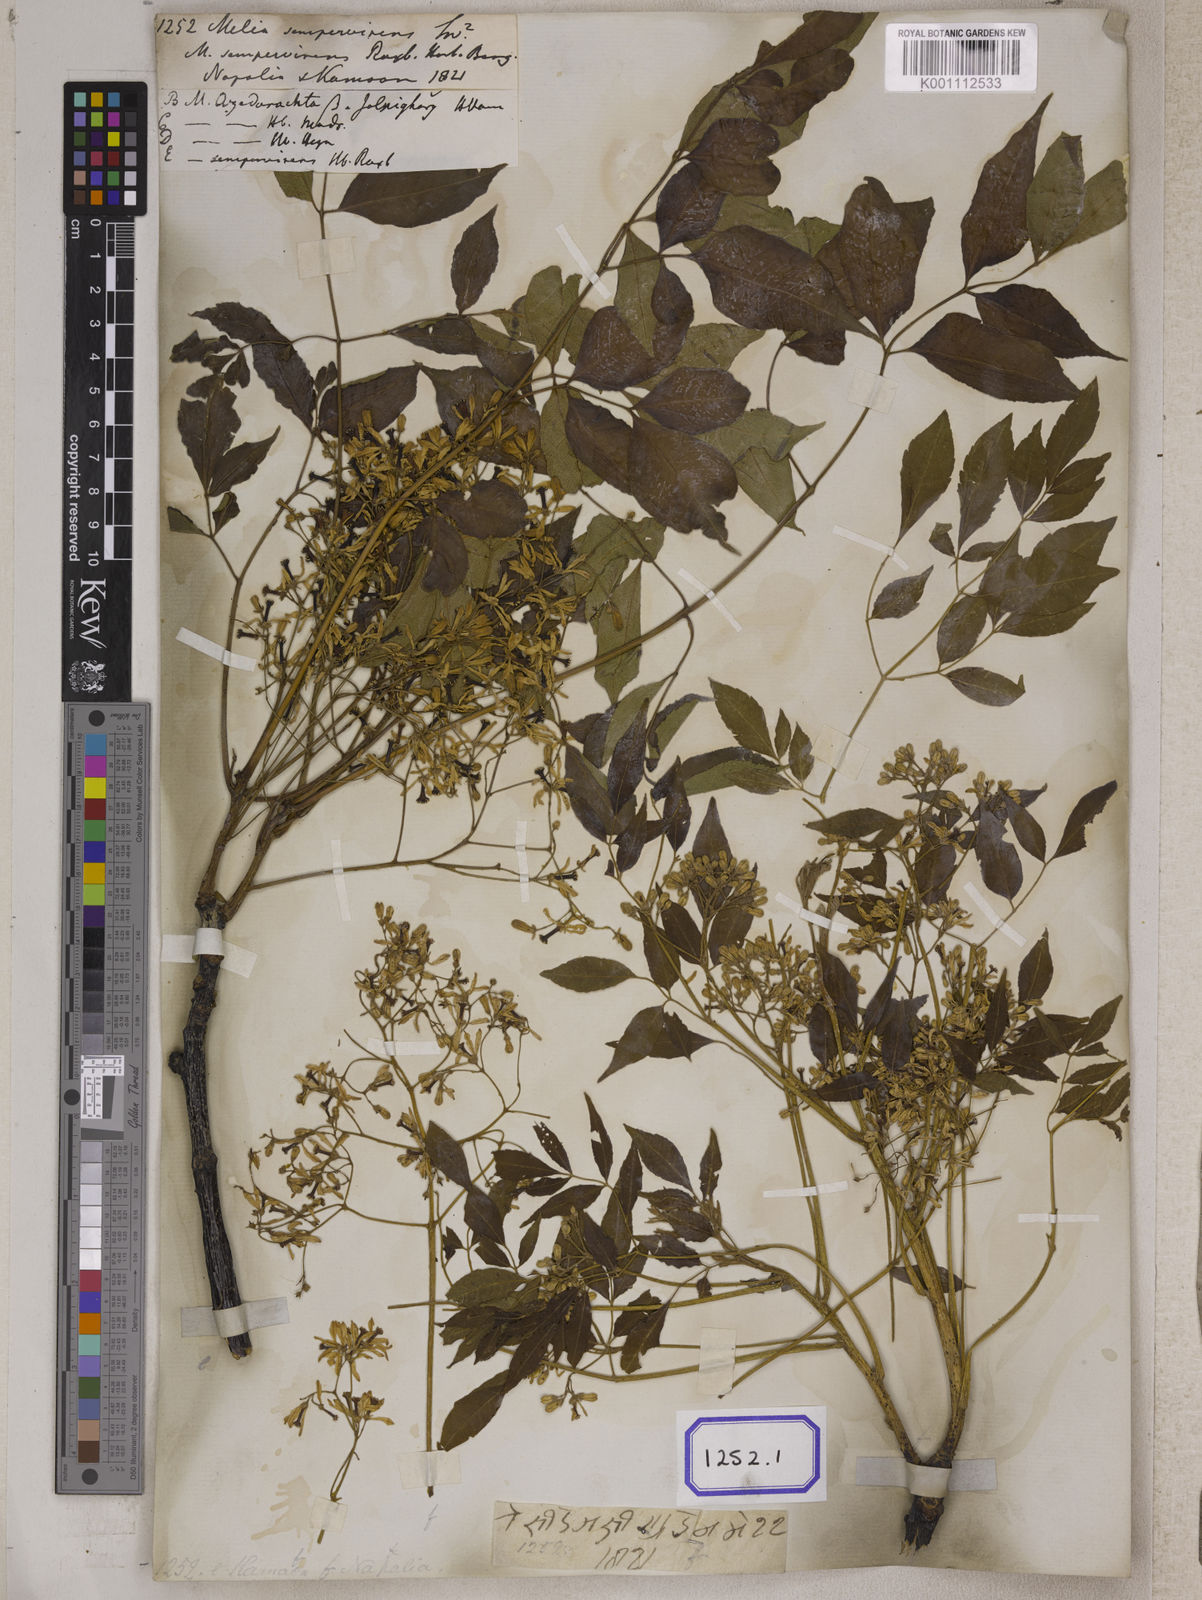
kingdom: Plantae
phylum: Tracheophyta
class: Magnoliopsida
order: Sapindales
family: Meliaceae
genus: Melia
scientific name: Melia azedarach
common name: Chinaberrytree
